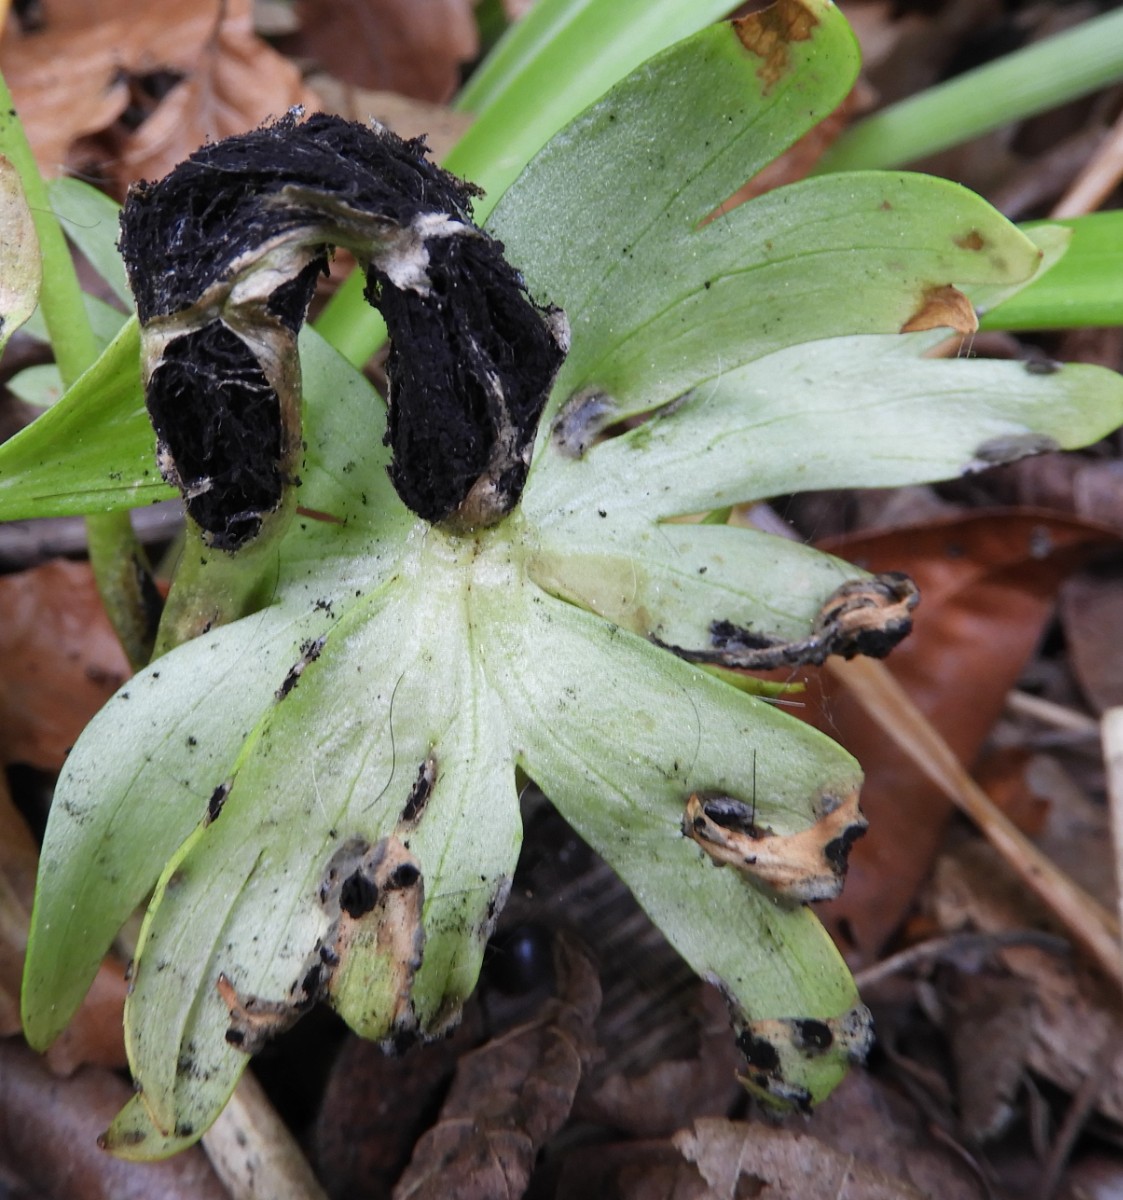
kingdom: Fungi
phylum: Basidiomycota
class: Ustilaginomycetes
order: Urocystidales
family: Urocystidaceae
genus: Urocystis
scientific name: Urocystis eranthidis
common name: erantis-brand
